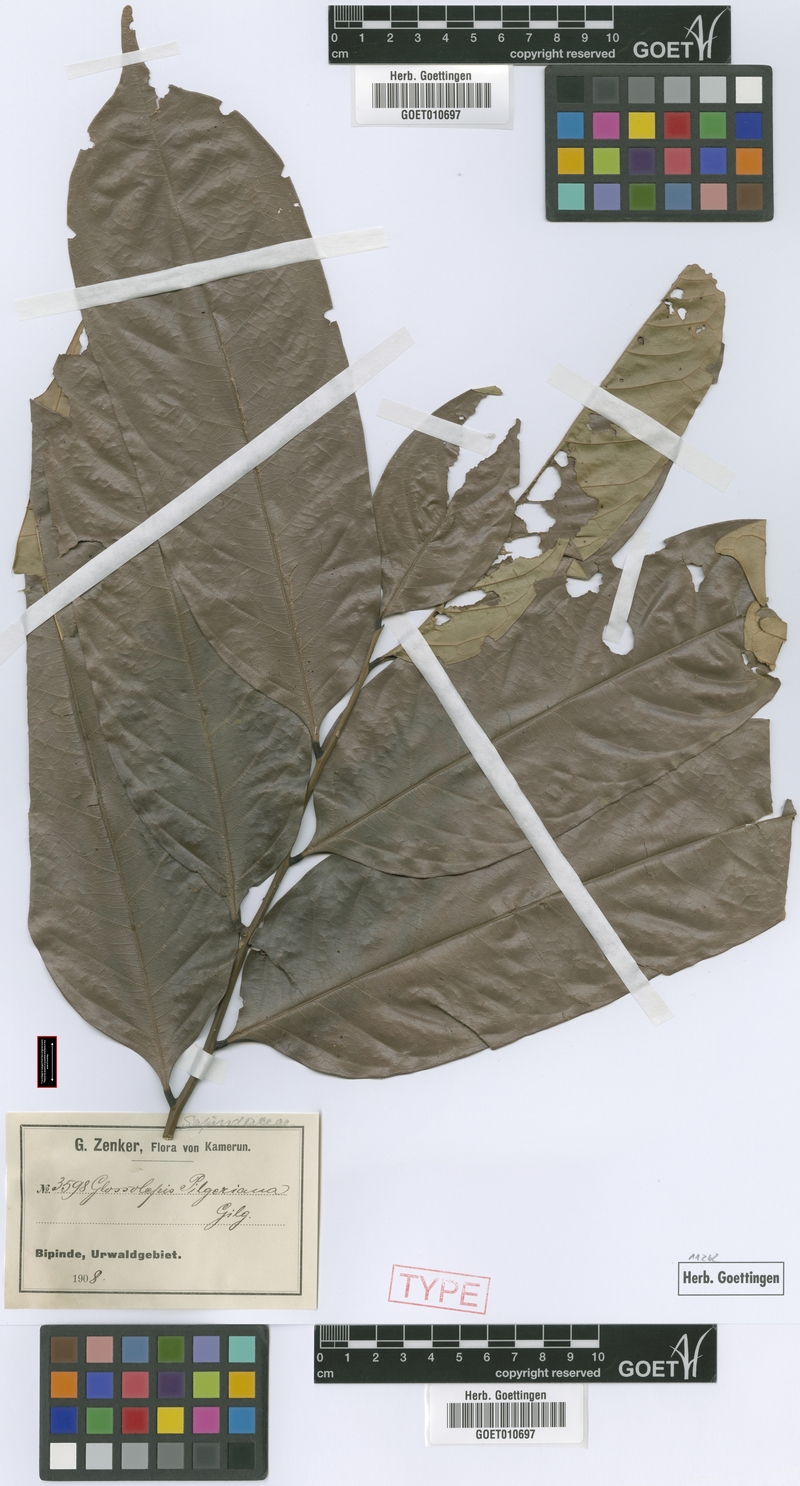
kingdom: Plantae
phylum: Tracheophyta
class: Magnoliopsida
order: Sapindales
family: Sapindaceae
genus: Chytranthus
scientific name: Chytranthus talbotii
